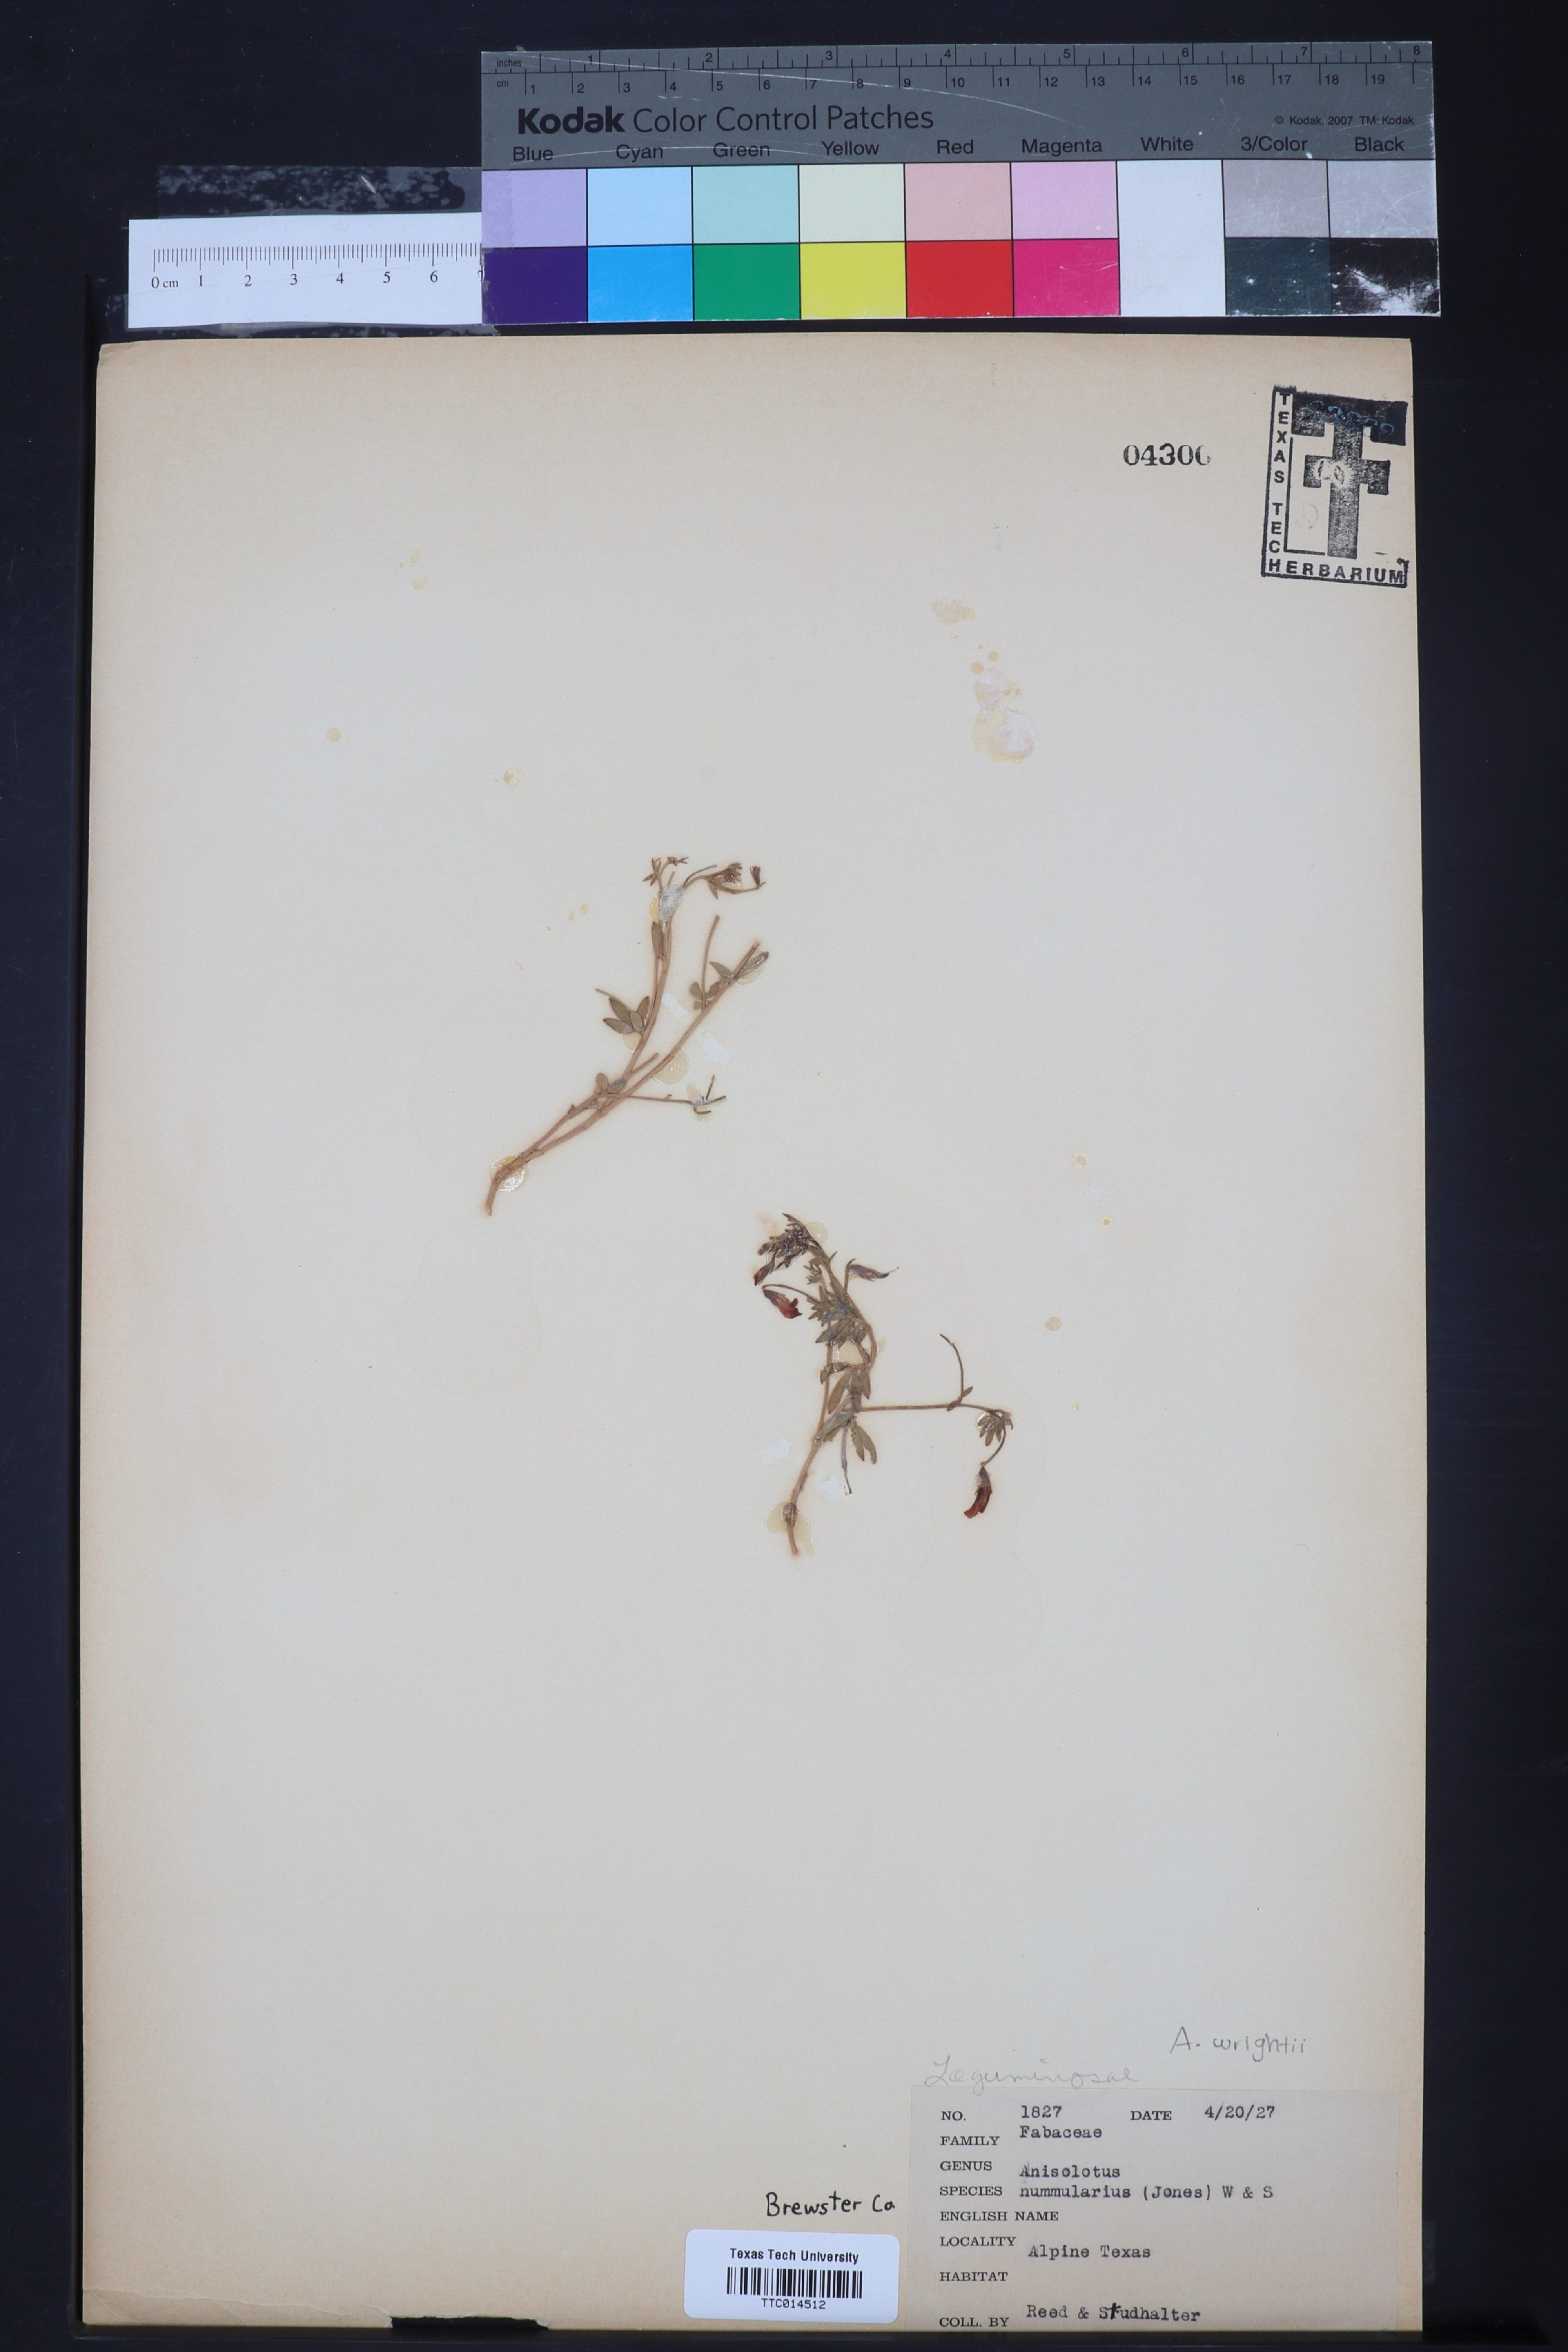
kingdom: Plantae
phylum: Tracheophyta
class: Magnoliopsida
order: Fabales
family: Fabaceae
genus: Acmispon
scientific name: Acmispon plebeius
